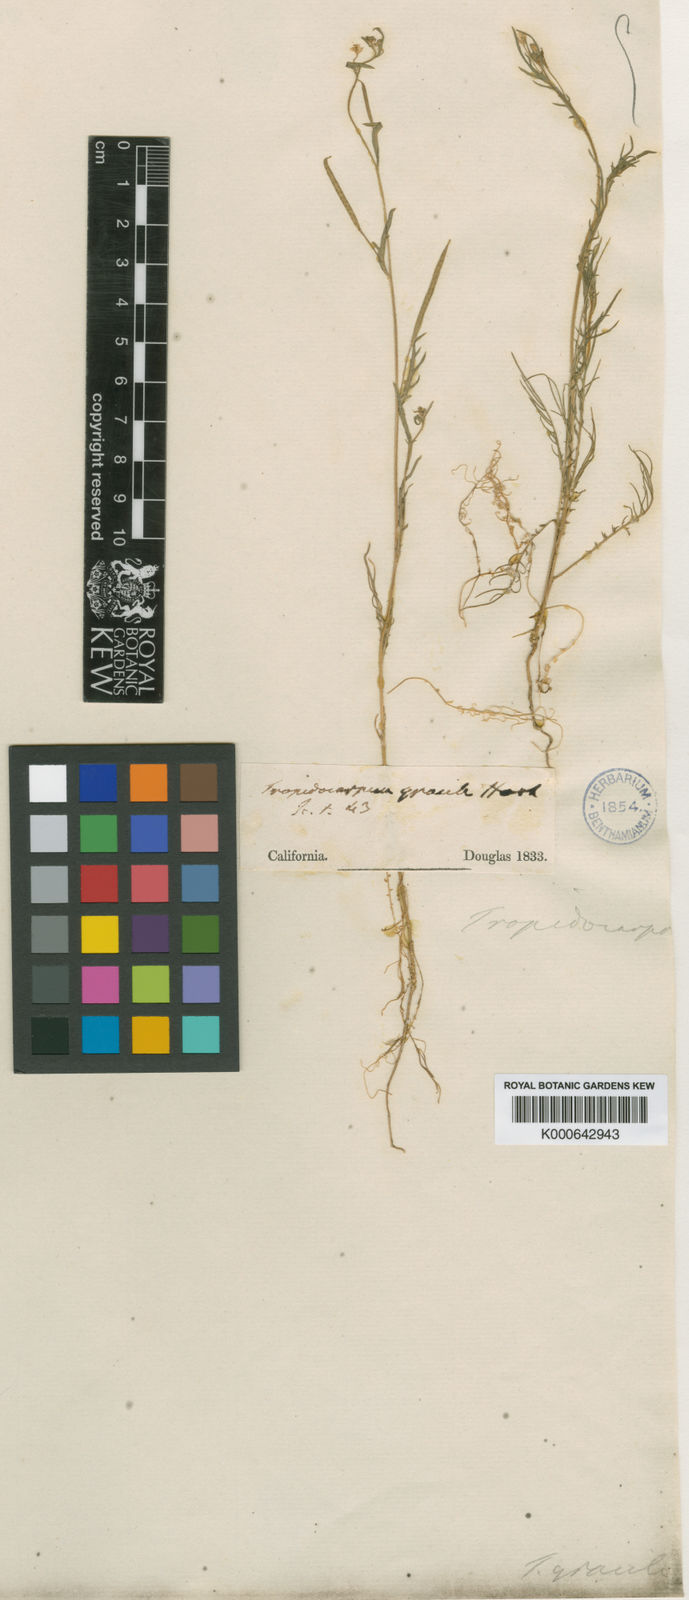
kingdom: Plantae
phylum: Tracheophyta
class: Magnoliopsida
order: Brassicales
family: Brassicaceae
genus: Tropidocarpum
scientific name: Tropidocarpum gracile
